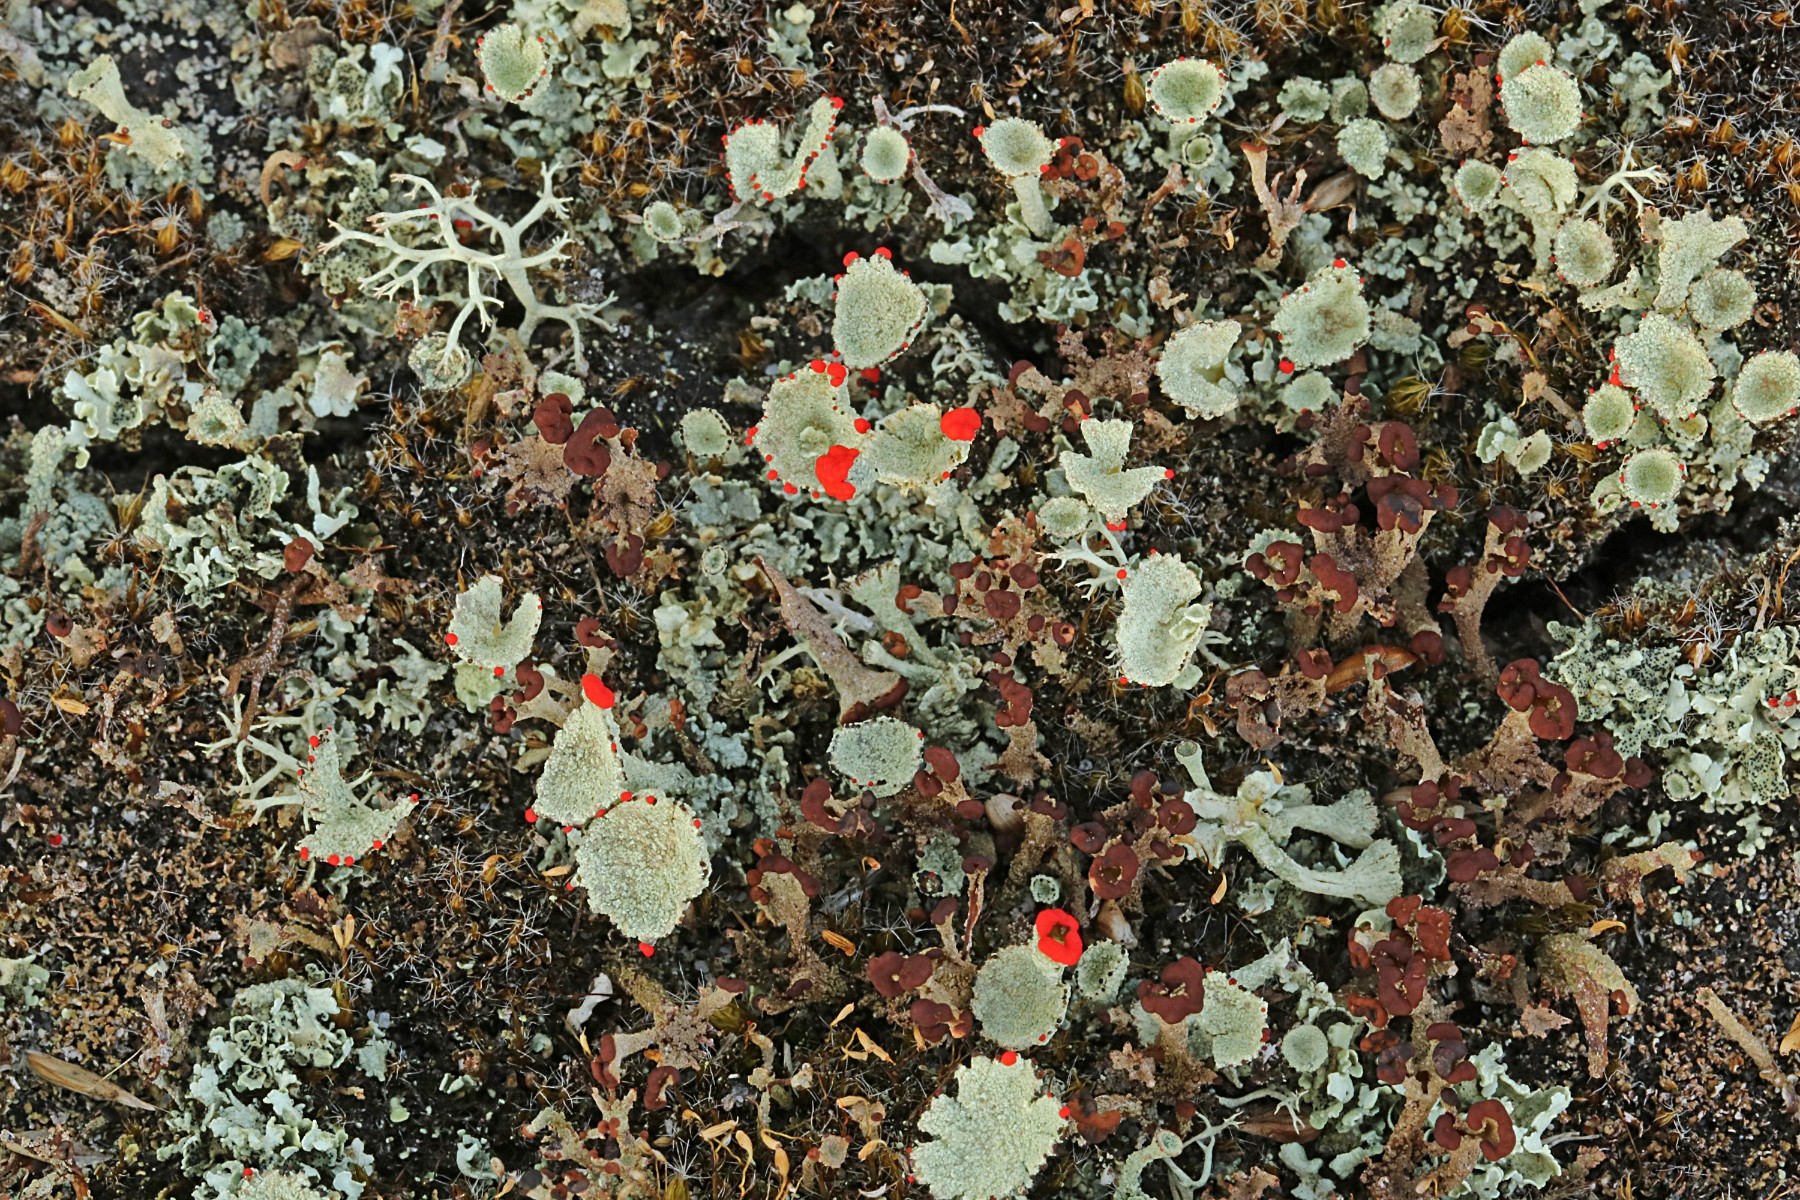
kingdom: Fungi
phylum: Ascomycota
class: Lecanoromycetes
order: Lecanorales
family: Cladoniaceae
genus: Cladonia
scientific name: Cladonia diversa
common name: rød bægerlav
